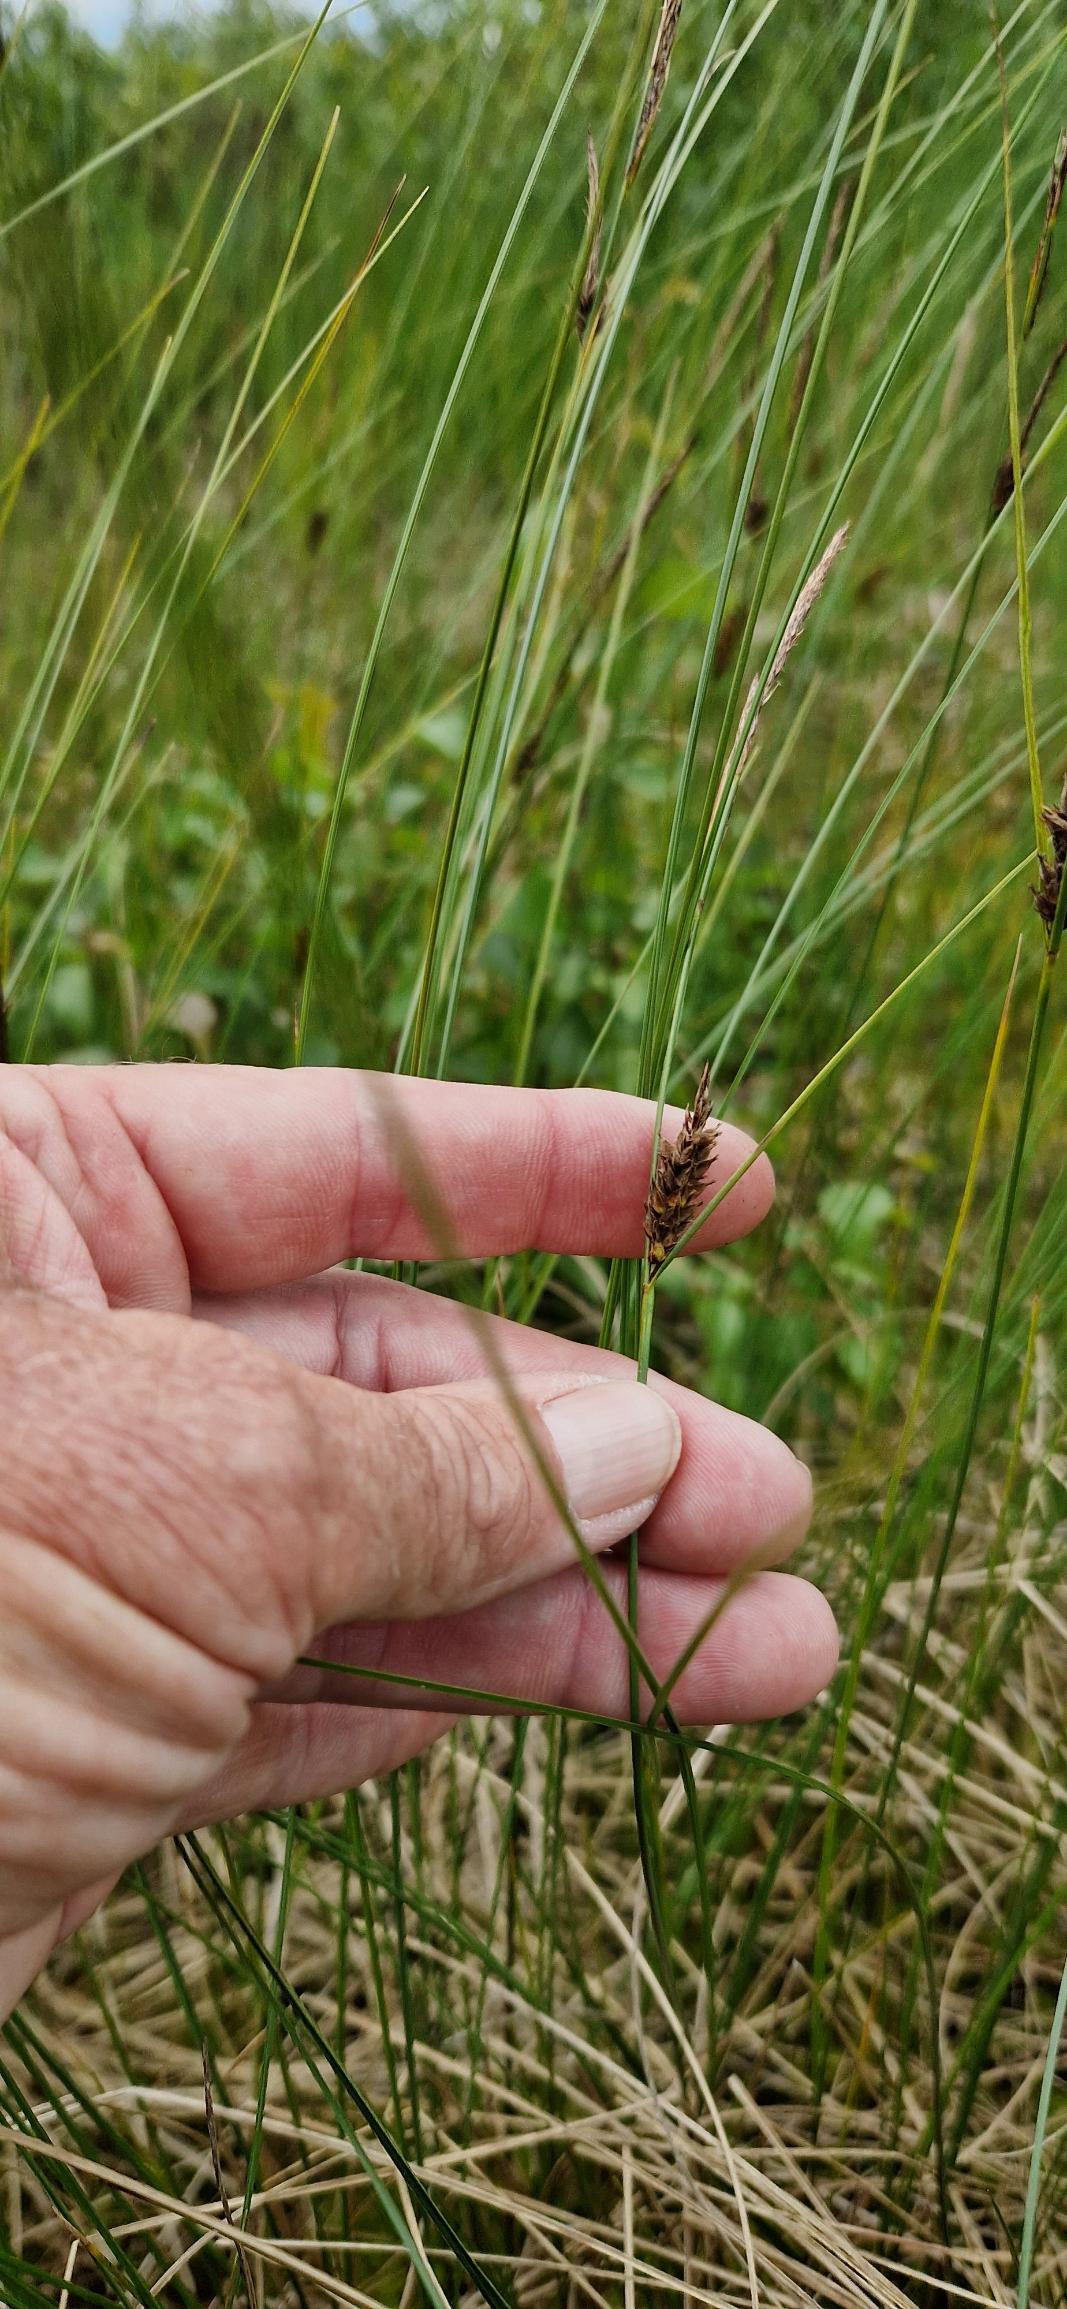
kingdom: Plantae
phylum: Tracheophyta
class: Liliopsida
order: Poales
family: Cyperaceae
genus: Carex
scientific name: Carex lasiocarpa
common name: Tråd-star
